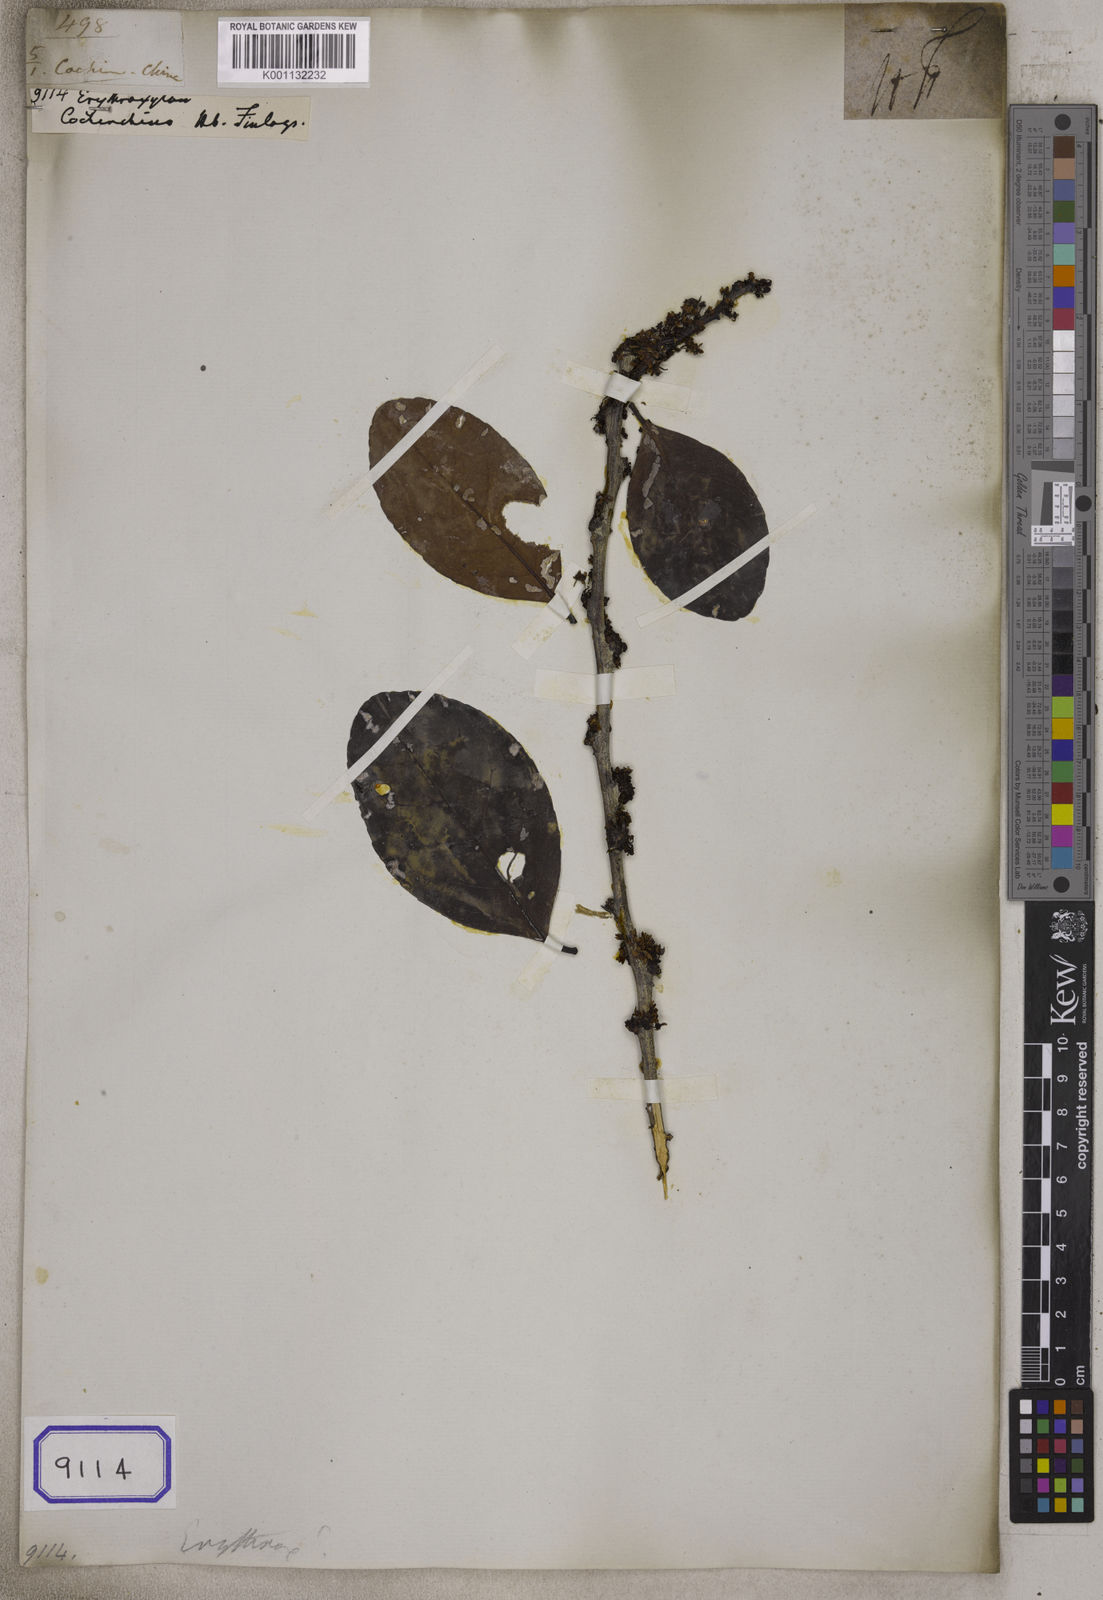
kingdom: Plantae
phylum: Tracheophyta
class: Magnoliopsida
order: Malpighiales
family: Erythroxylaceae
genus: Erythroxylum
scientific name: Erythroxylum
